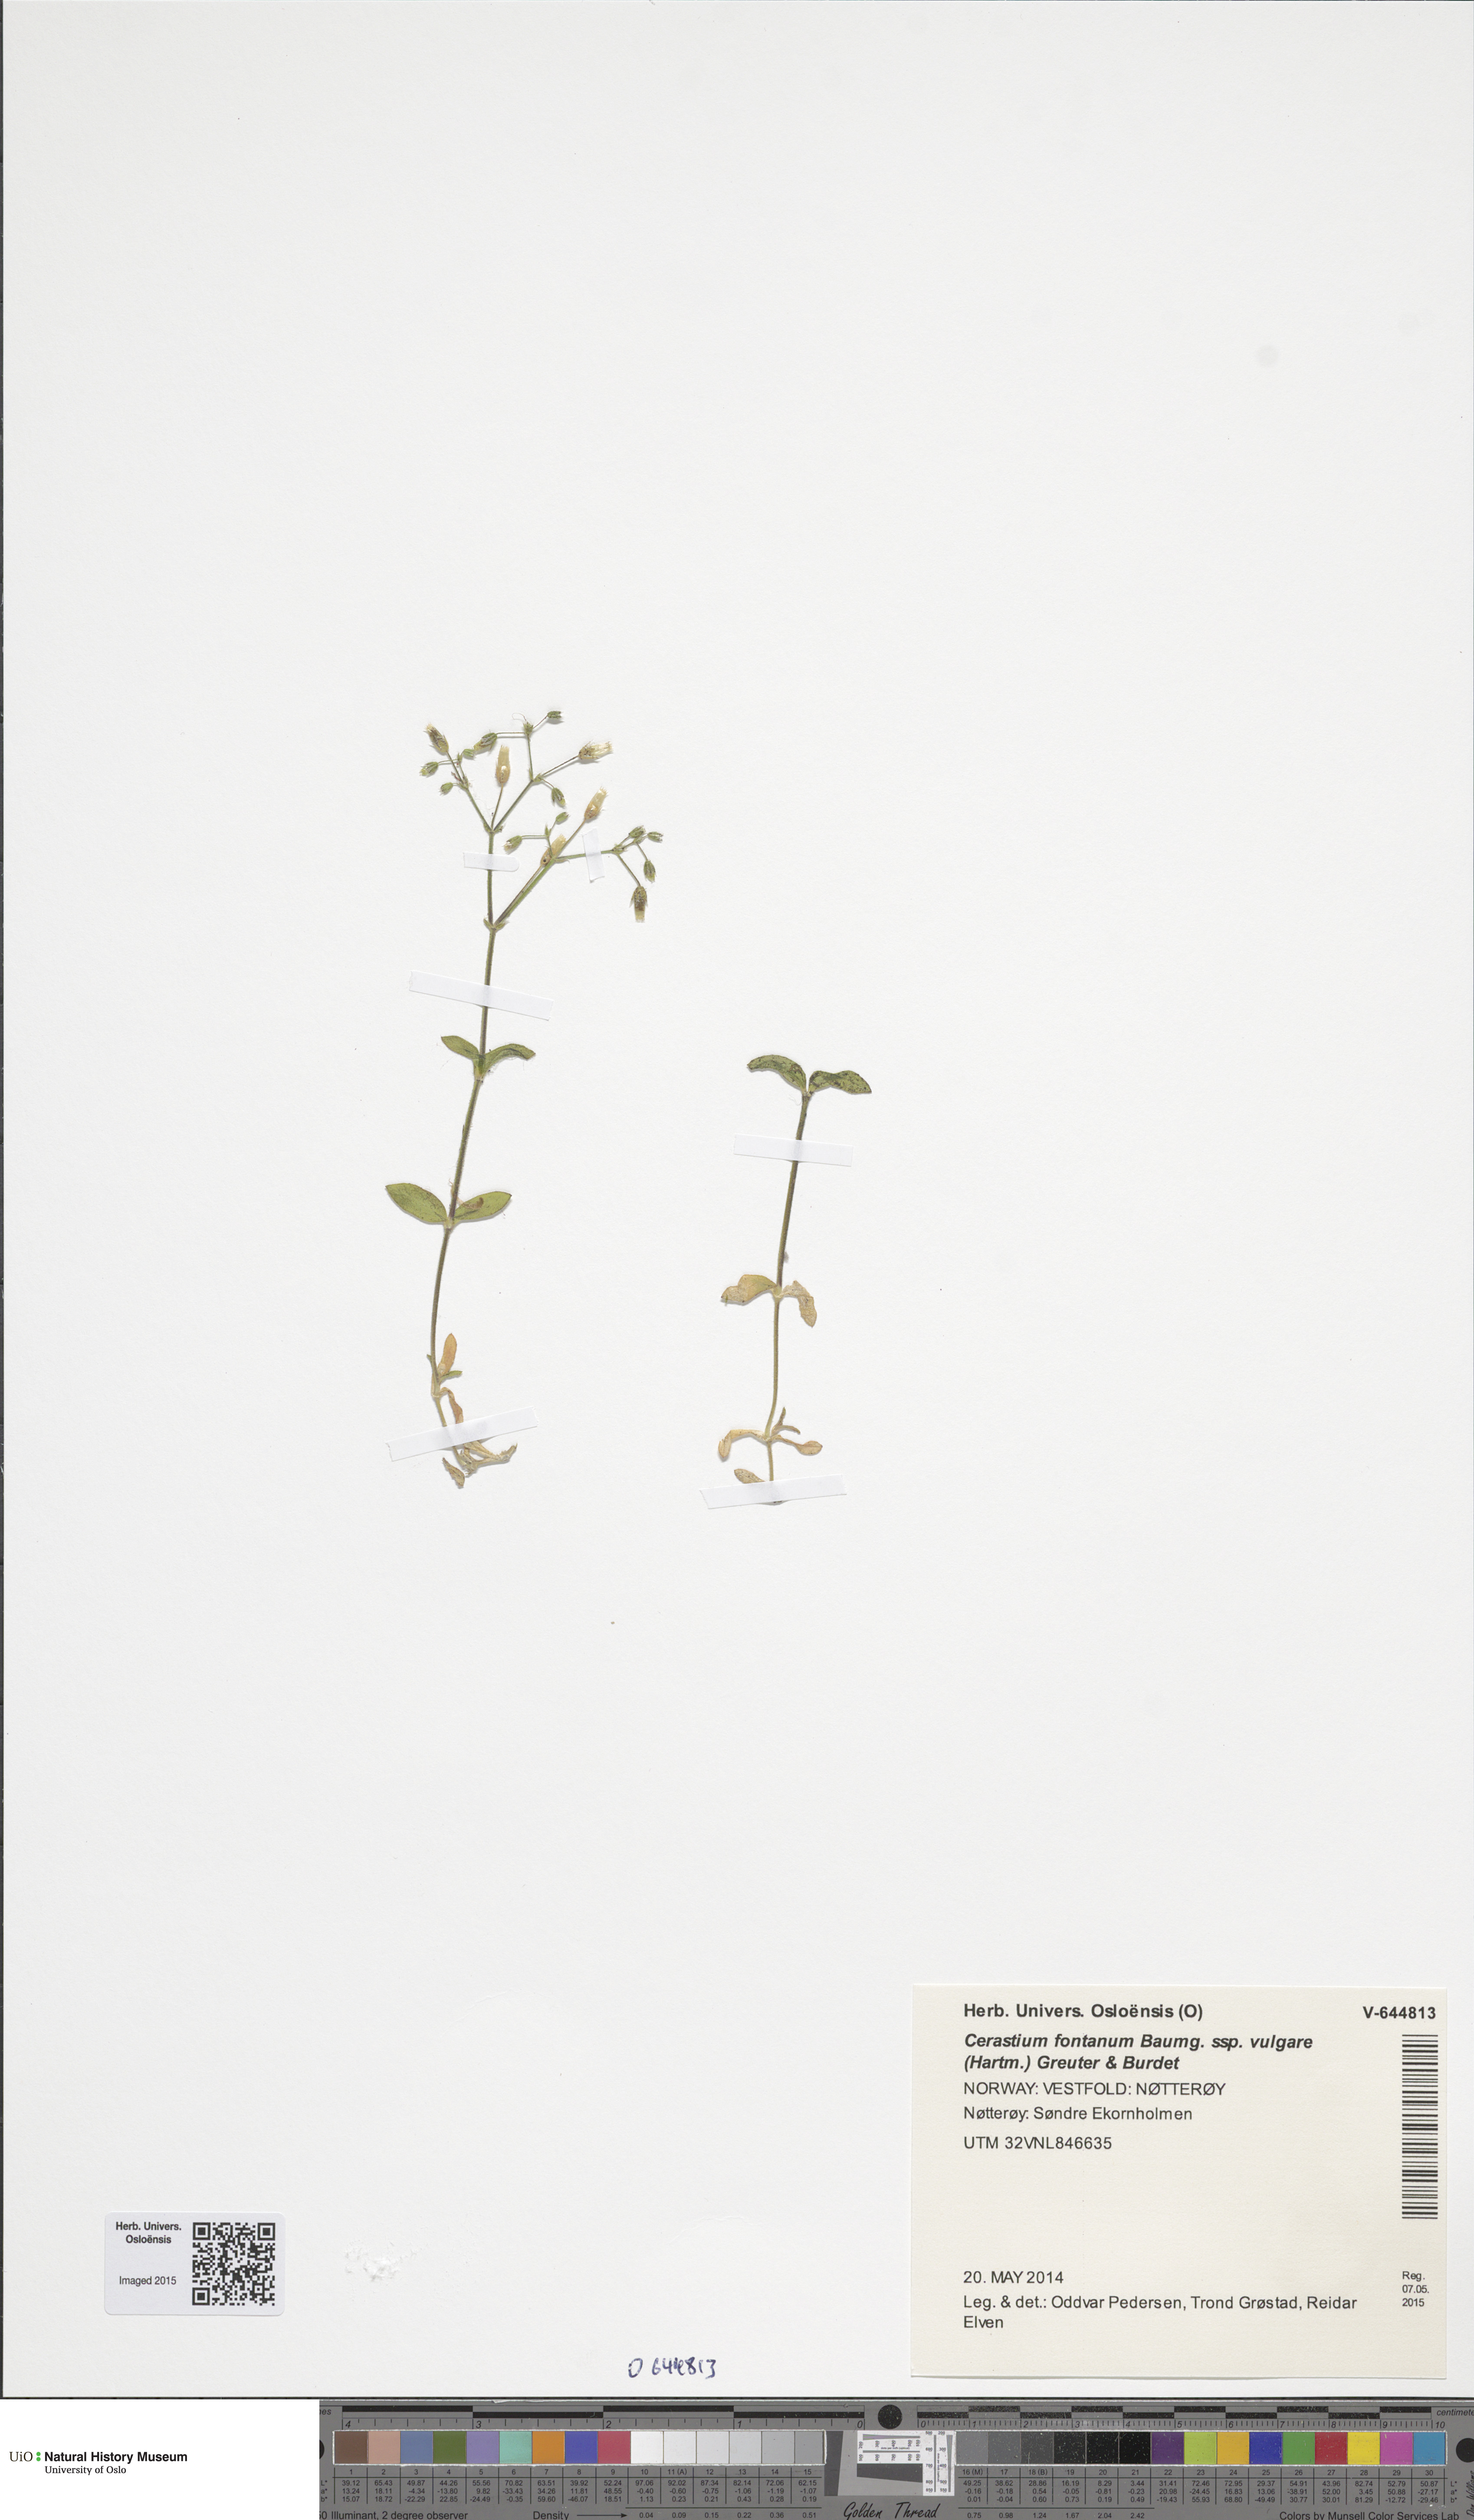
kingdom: Plantae
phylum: Tracheophyta
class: Magnoliopsida
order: Caryophyllales
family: Caryophyllaceae
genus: Cerastium
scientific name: Cerastium holosteoides
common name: Big chickweed
